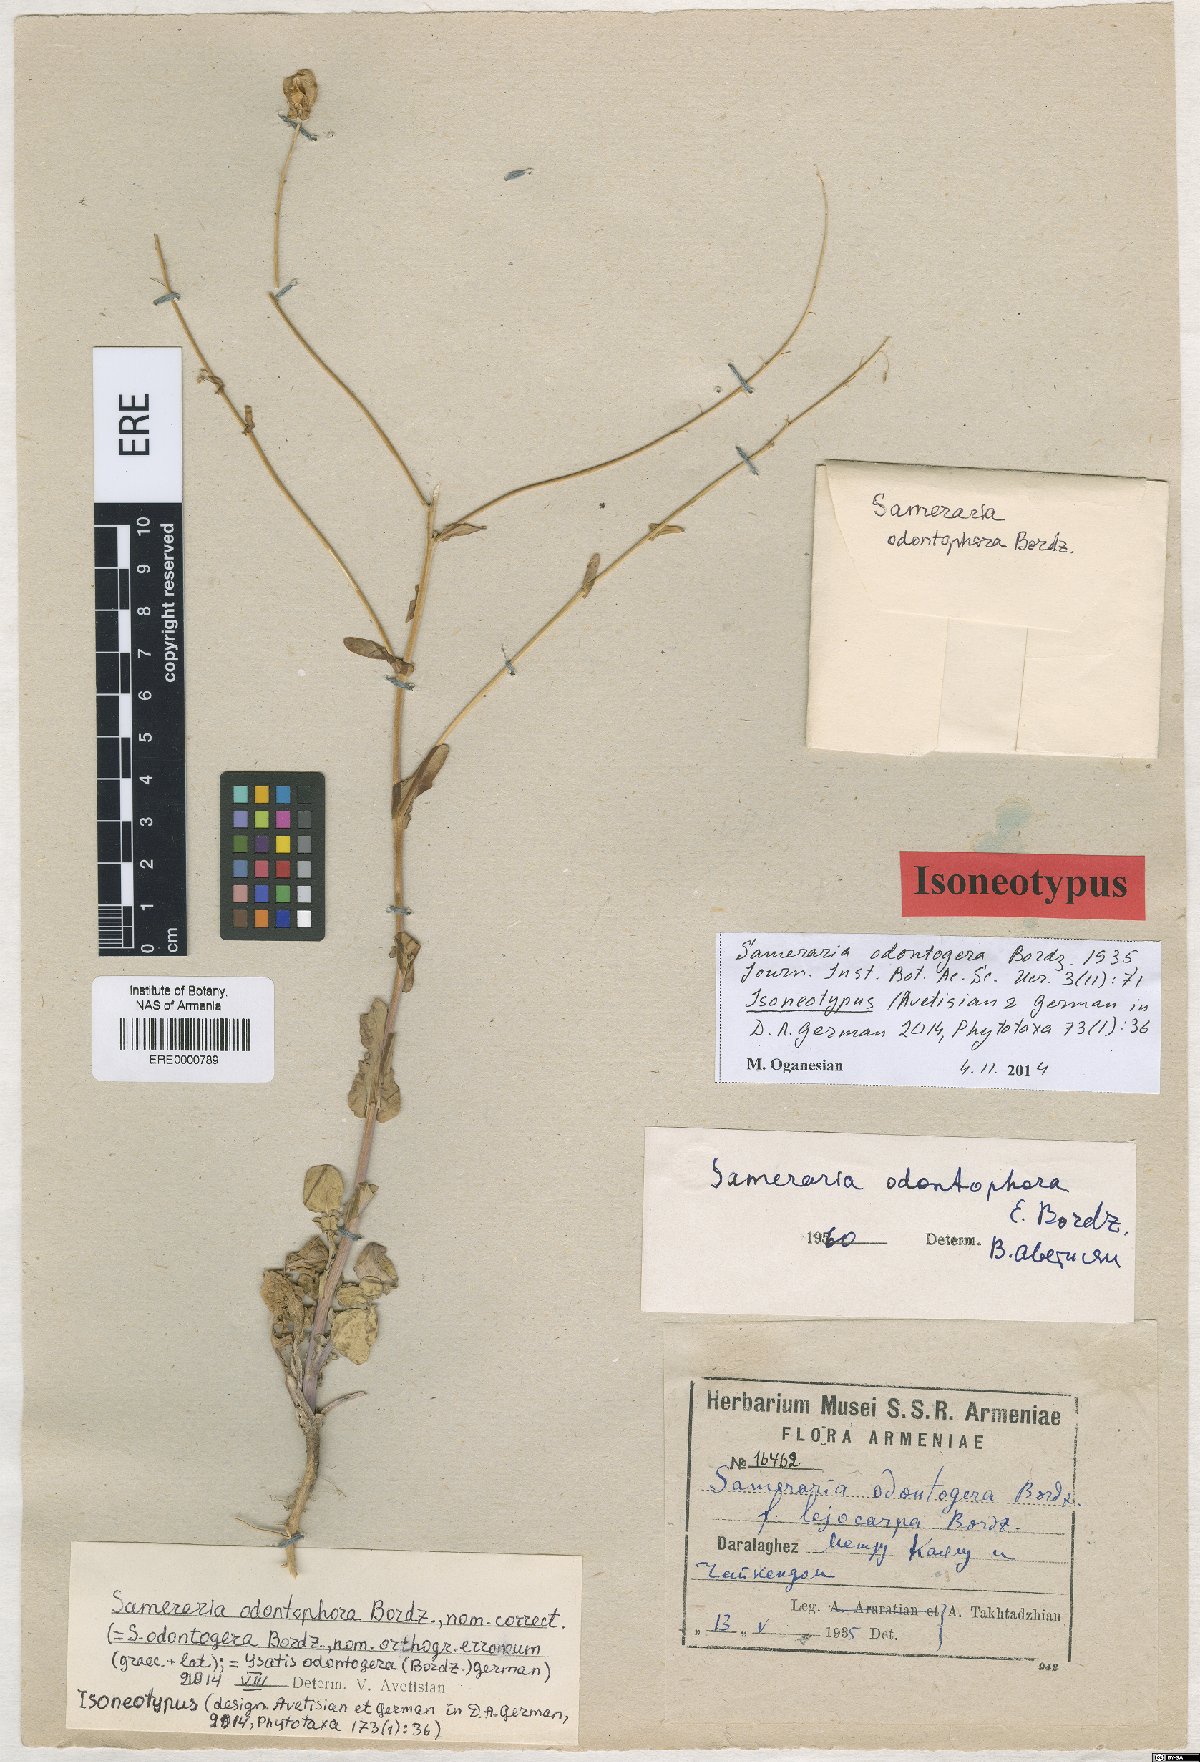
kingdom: Plantae
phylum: Tracheophyta
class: Magnoliopsida
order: Brassicales
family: Brassicaceae
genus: Isatis
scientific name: Isatis odontogera
